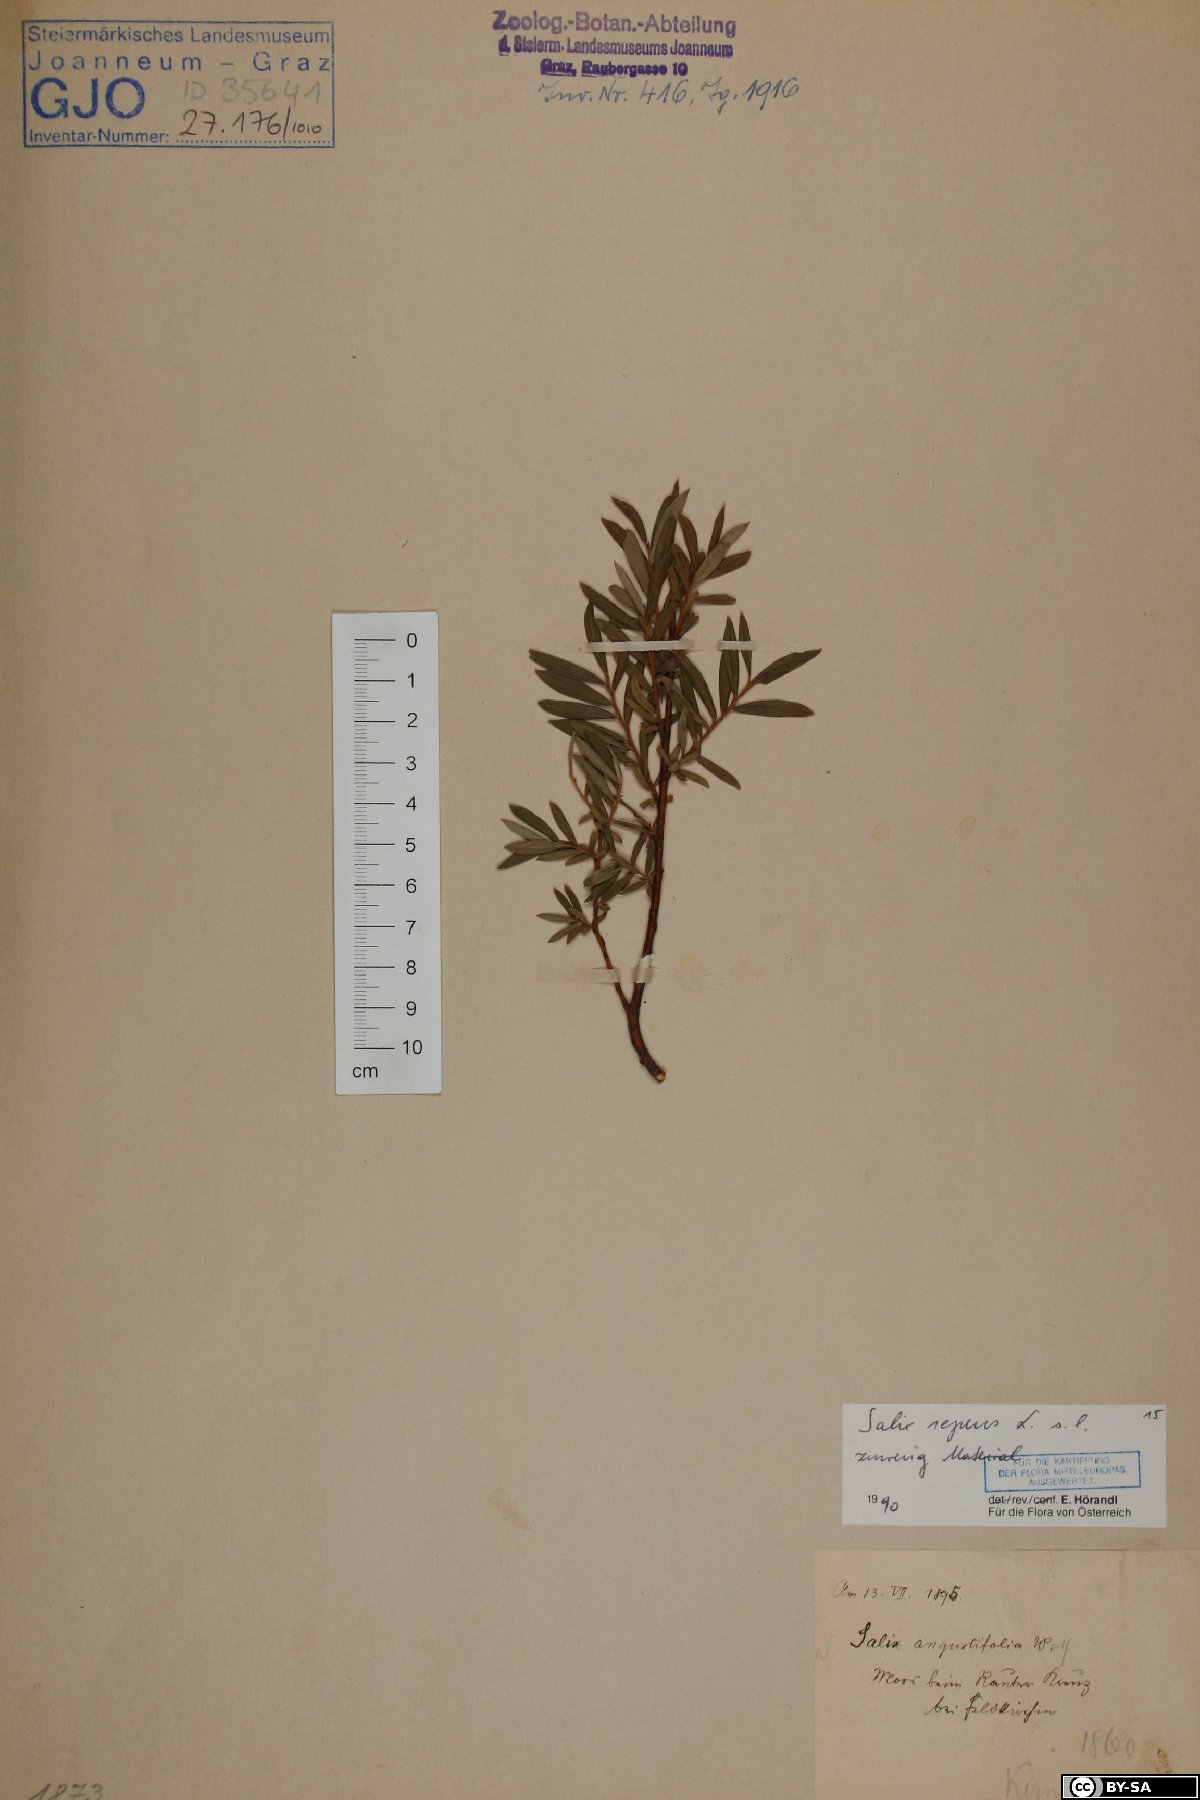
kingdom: Plantae
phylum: Tracheophyta
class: Magnoliopsida
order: Malpighiales
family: Salicaceae
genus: Salix
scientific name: Salix repens
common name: Creeping willow
